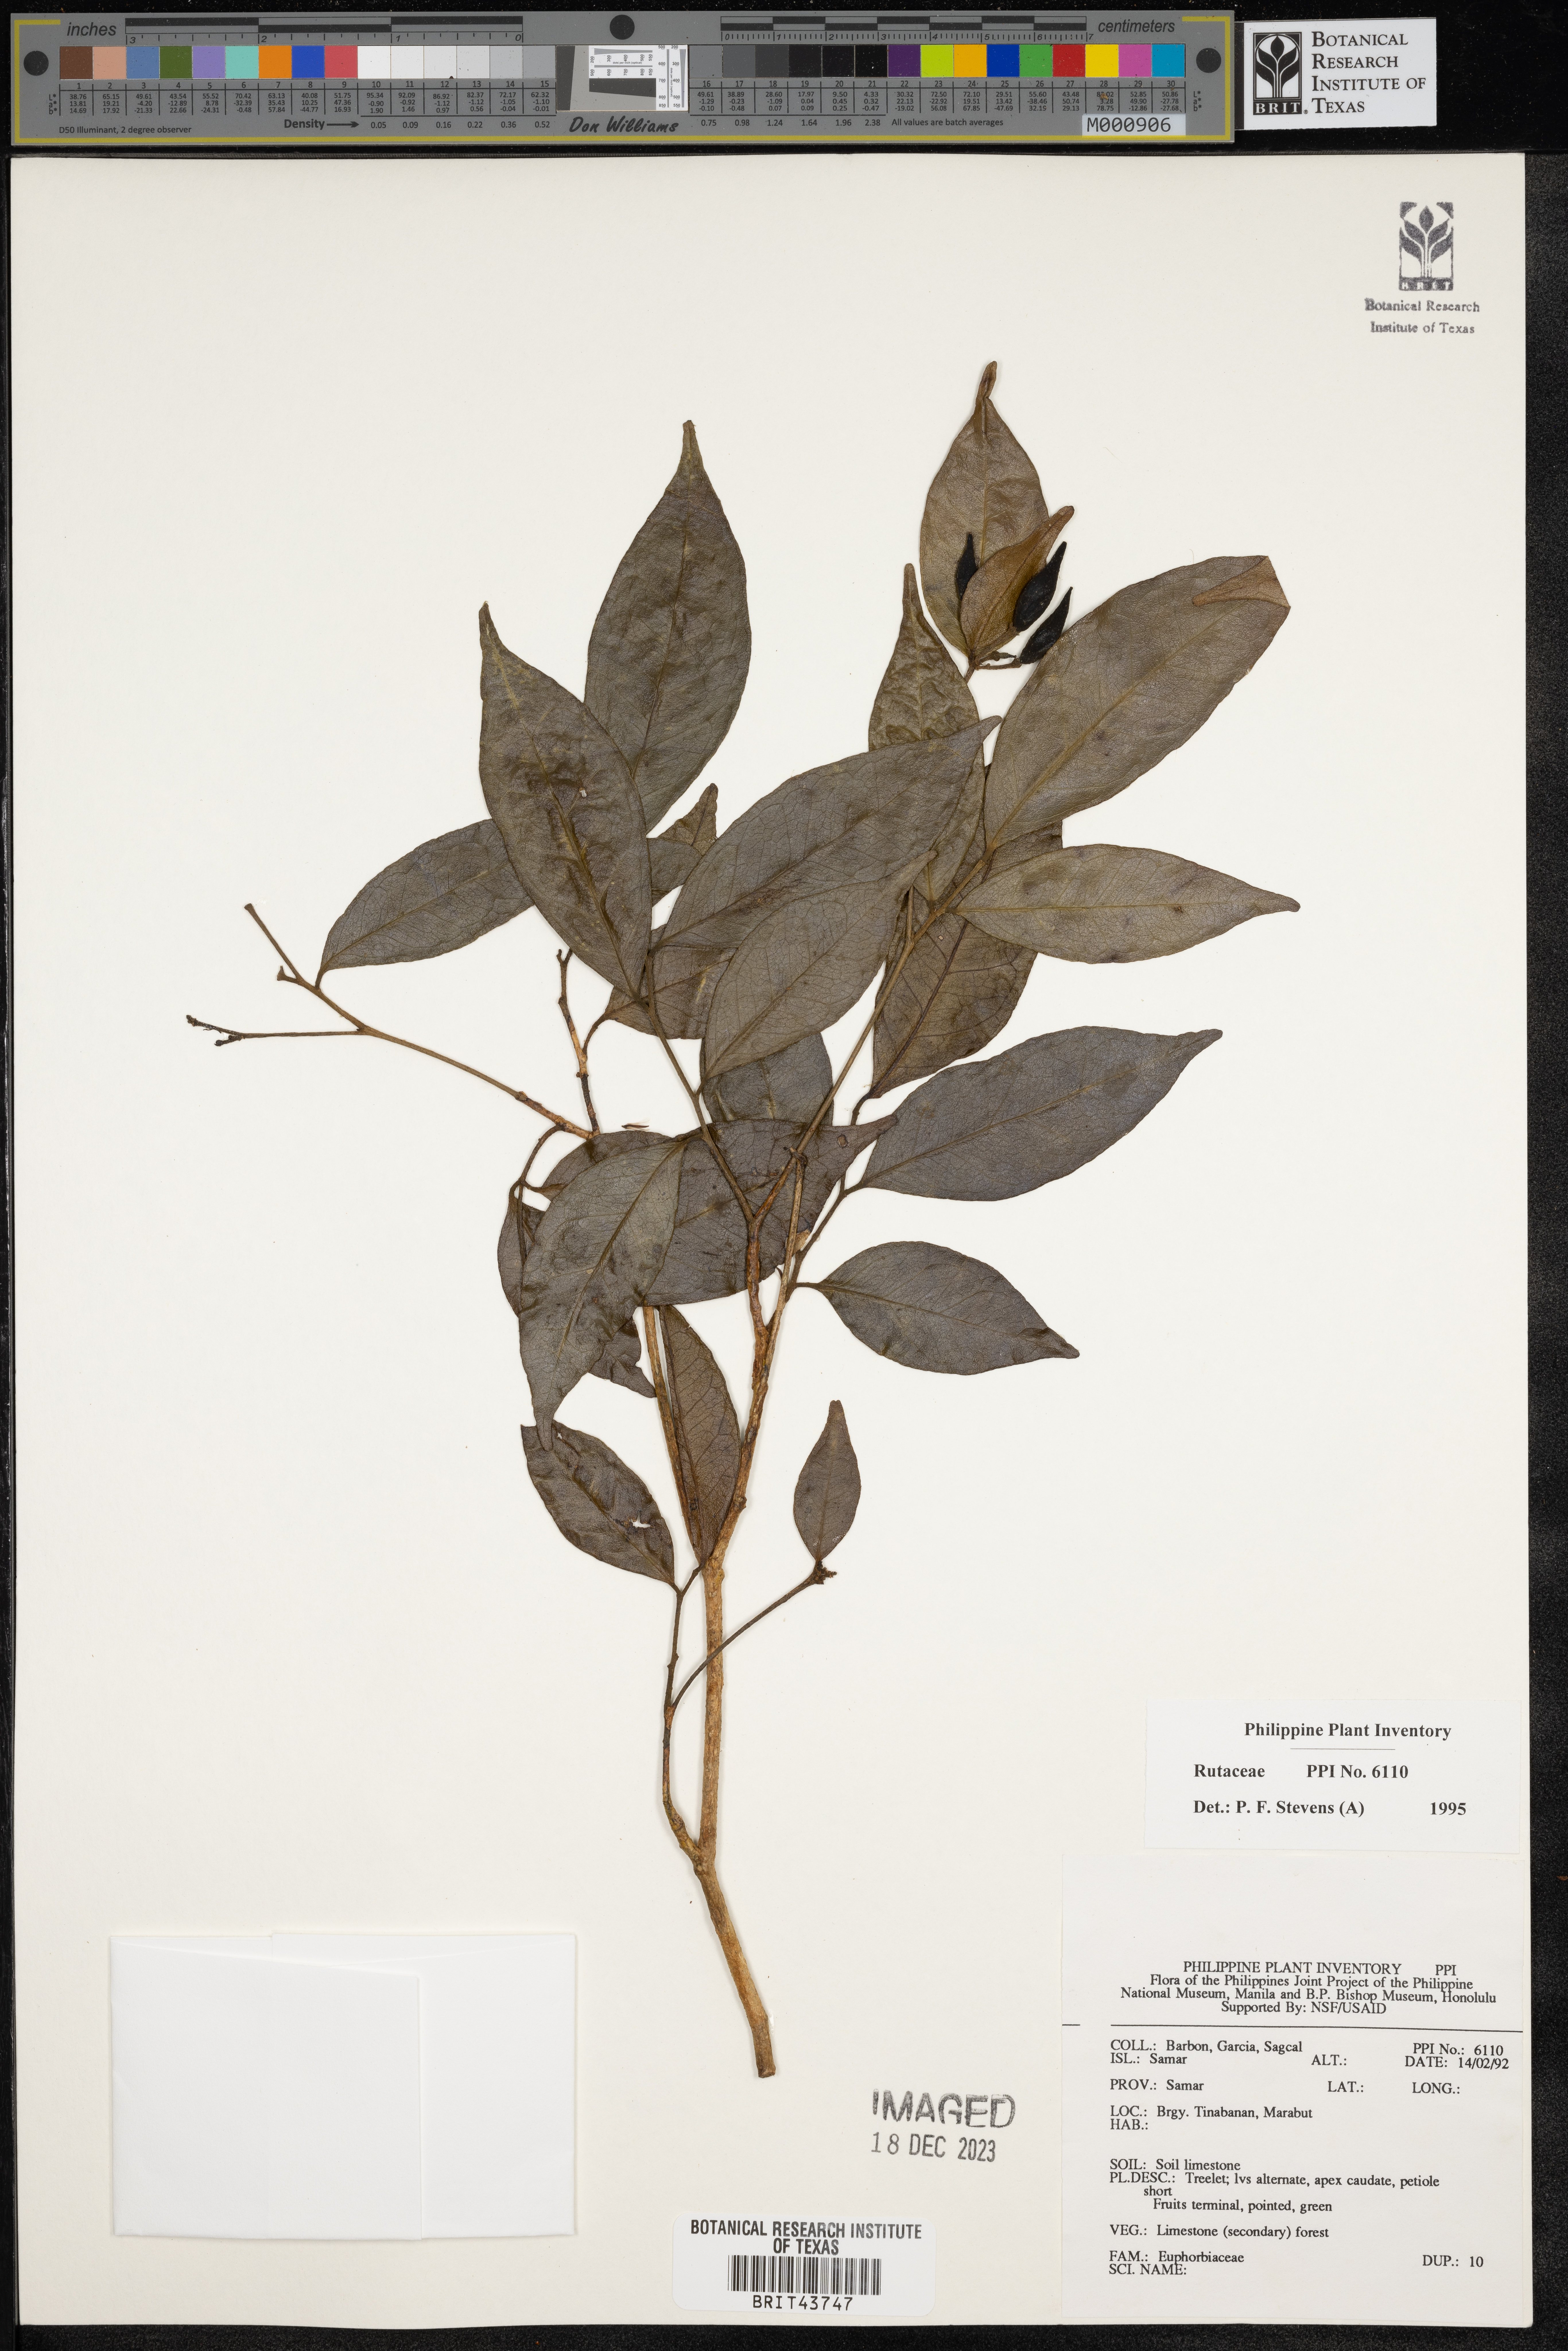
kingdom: Plantae
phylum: Tracheophyta
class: Magnoliopsida
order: Sapindales
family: Rutaceae
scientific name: Rutaceae
